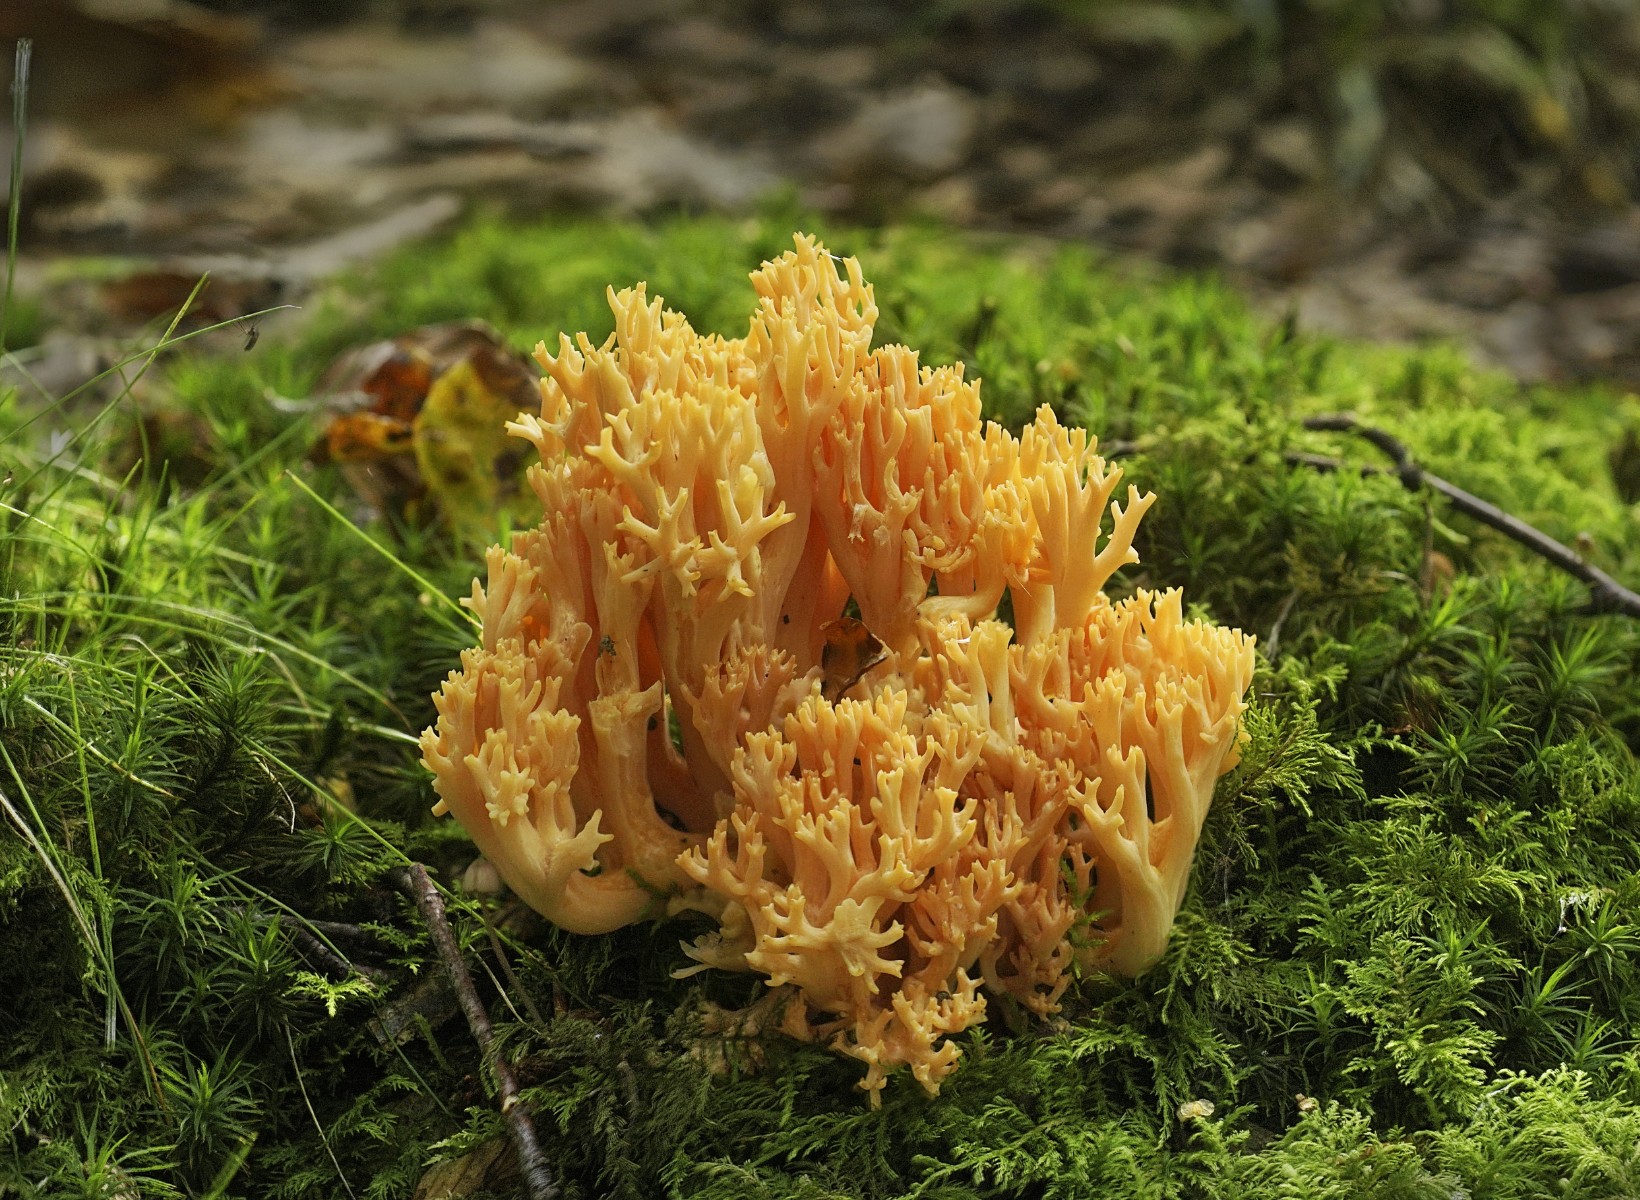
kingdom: Fungi
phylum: Basidiomycota
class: Agaricomycetes
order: Gomphales
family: Gomphaceae
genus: Ramaria
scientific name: Ramaria fagetorum
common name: abrikos-koralsvamp
